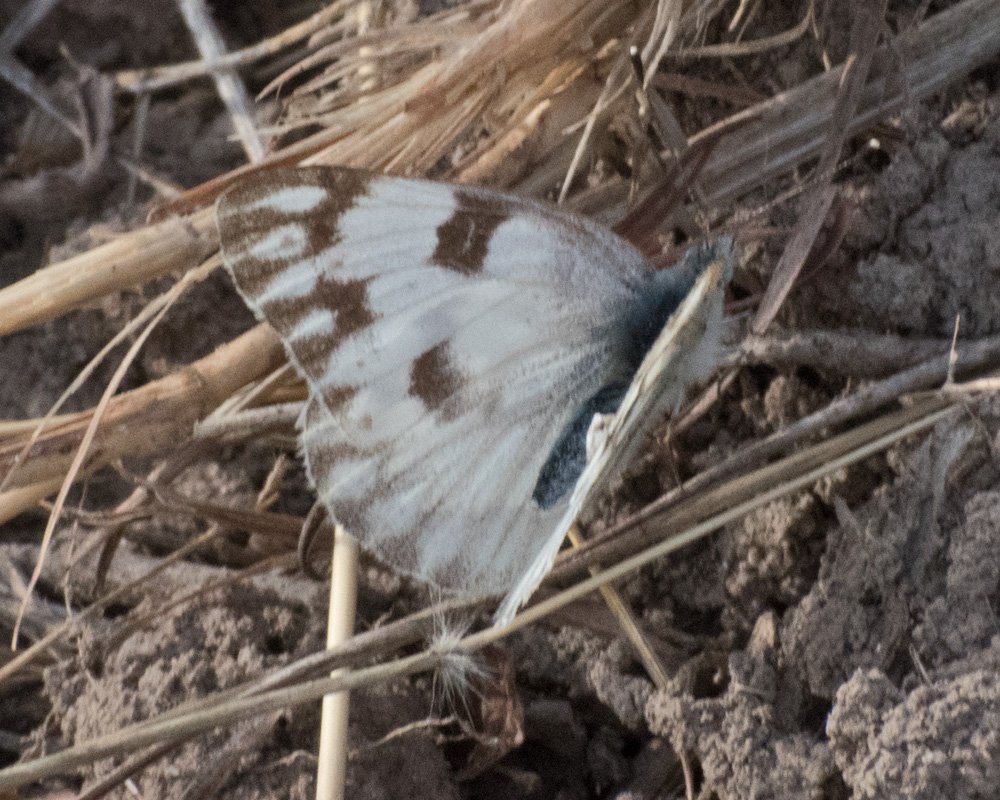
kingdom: Animalia
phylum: Arthropoda
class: Insecta
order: Lepidoptera
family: Pieridae
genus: Pontia
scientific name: Pontia protodice
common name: Checkered White
